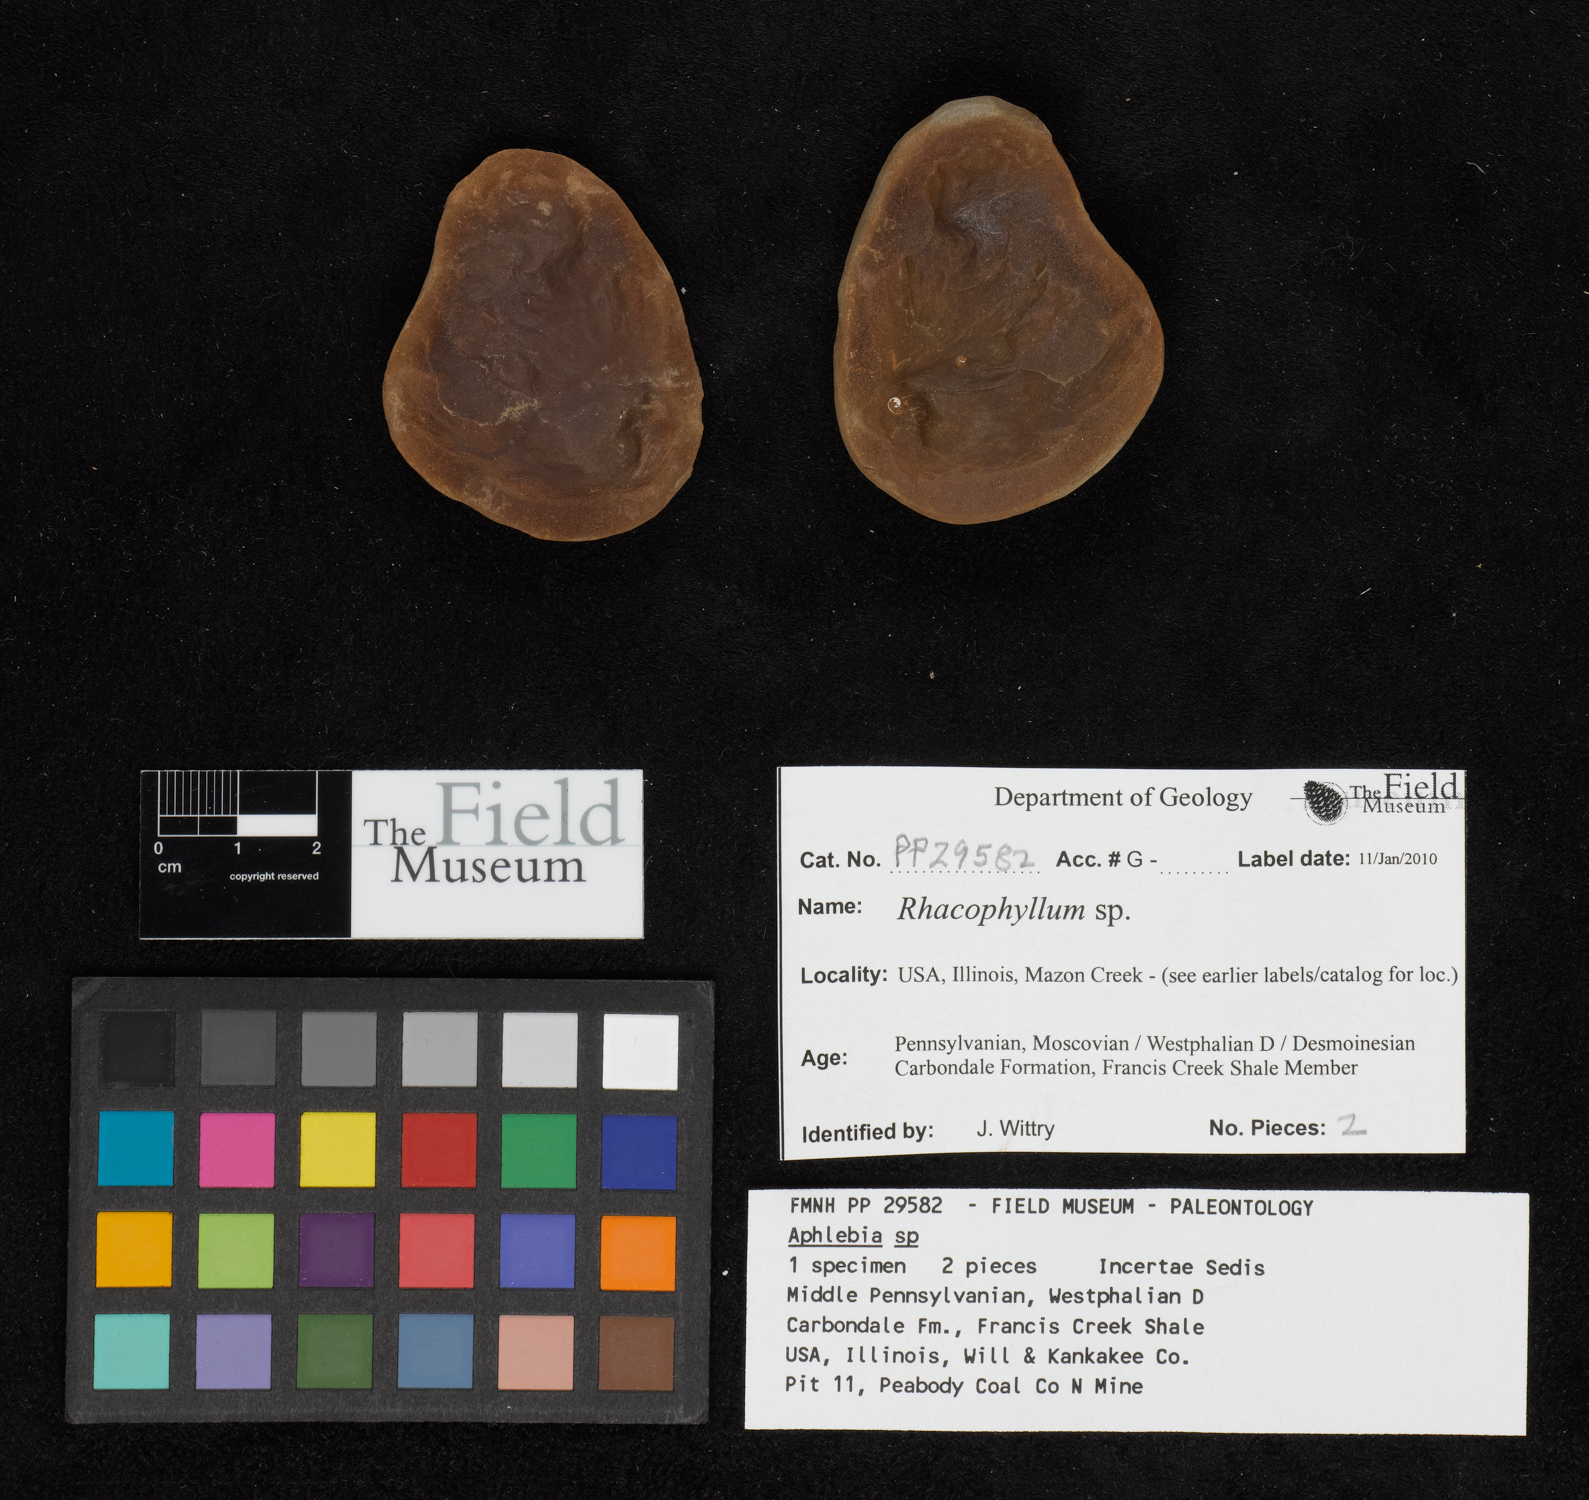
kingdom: Plantae
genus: Rhacophyllum
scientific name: Rhacophyllum
